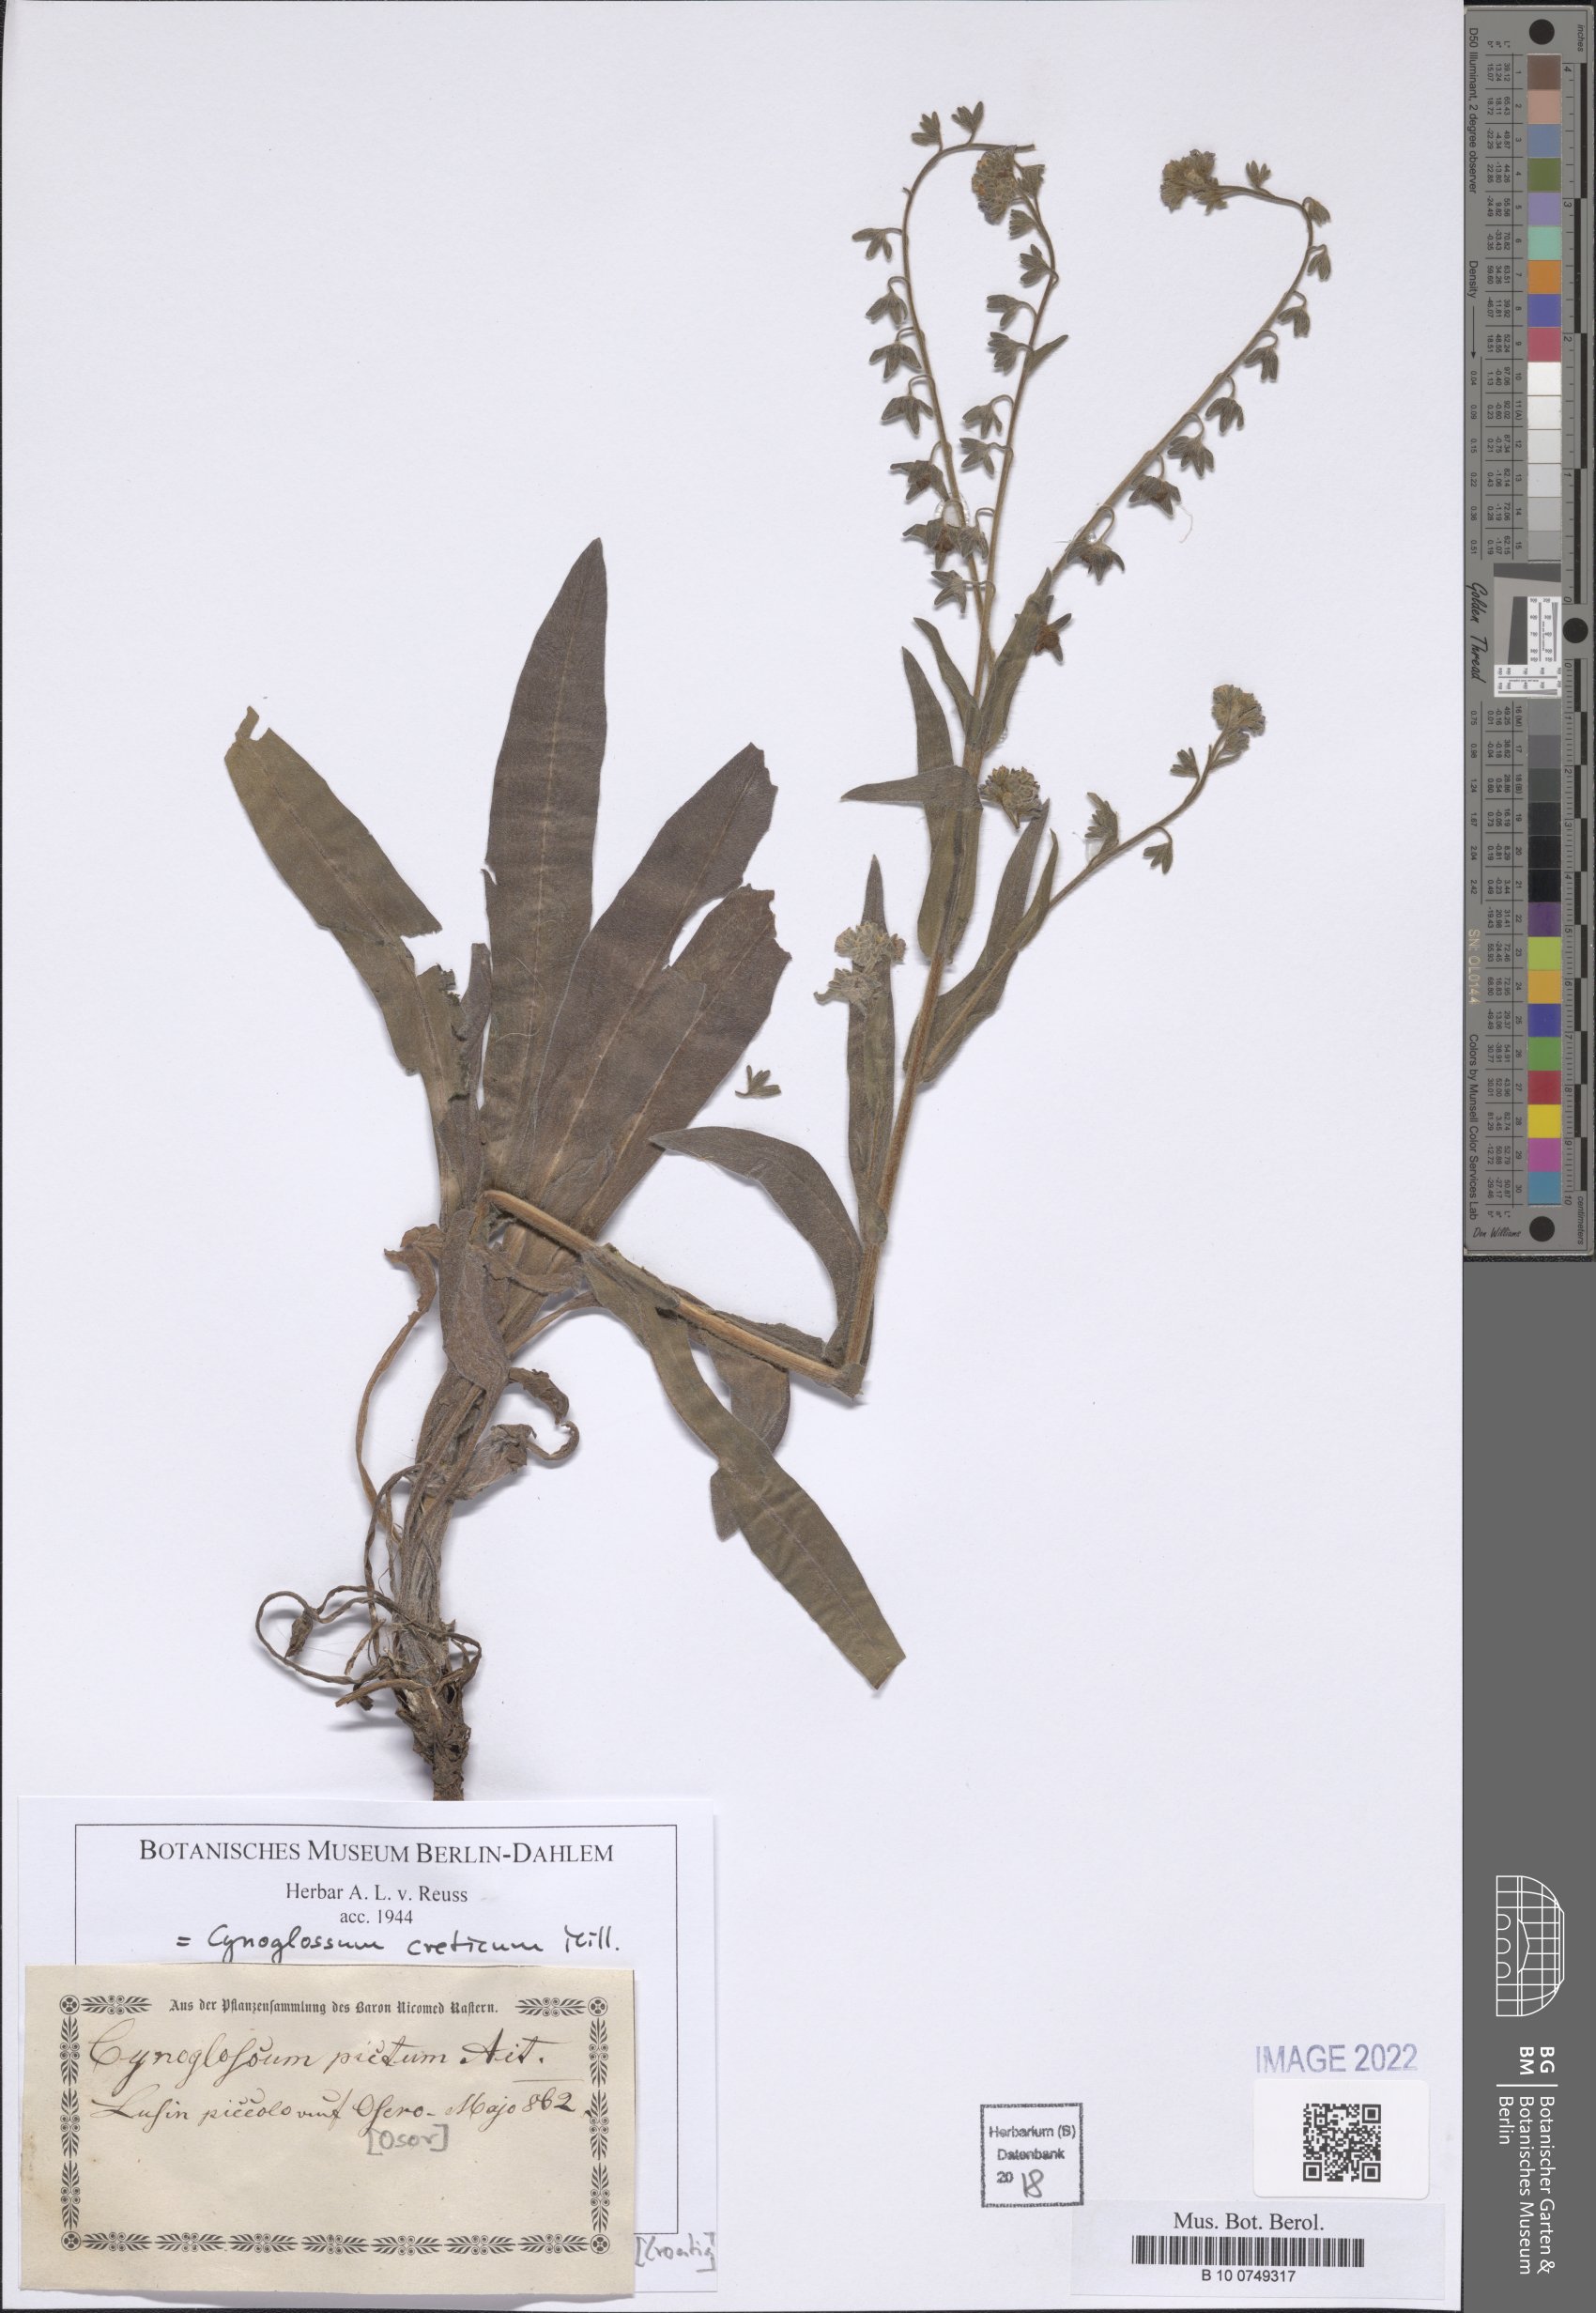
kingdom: Plantae
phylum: Tracheophyta
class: Magnoliopsida
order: Boraginales
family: Boraginaceae
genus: Cynoglossum
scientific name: Cynoglossum creticum
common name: Blue hound's tongue
